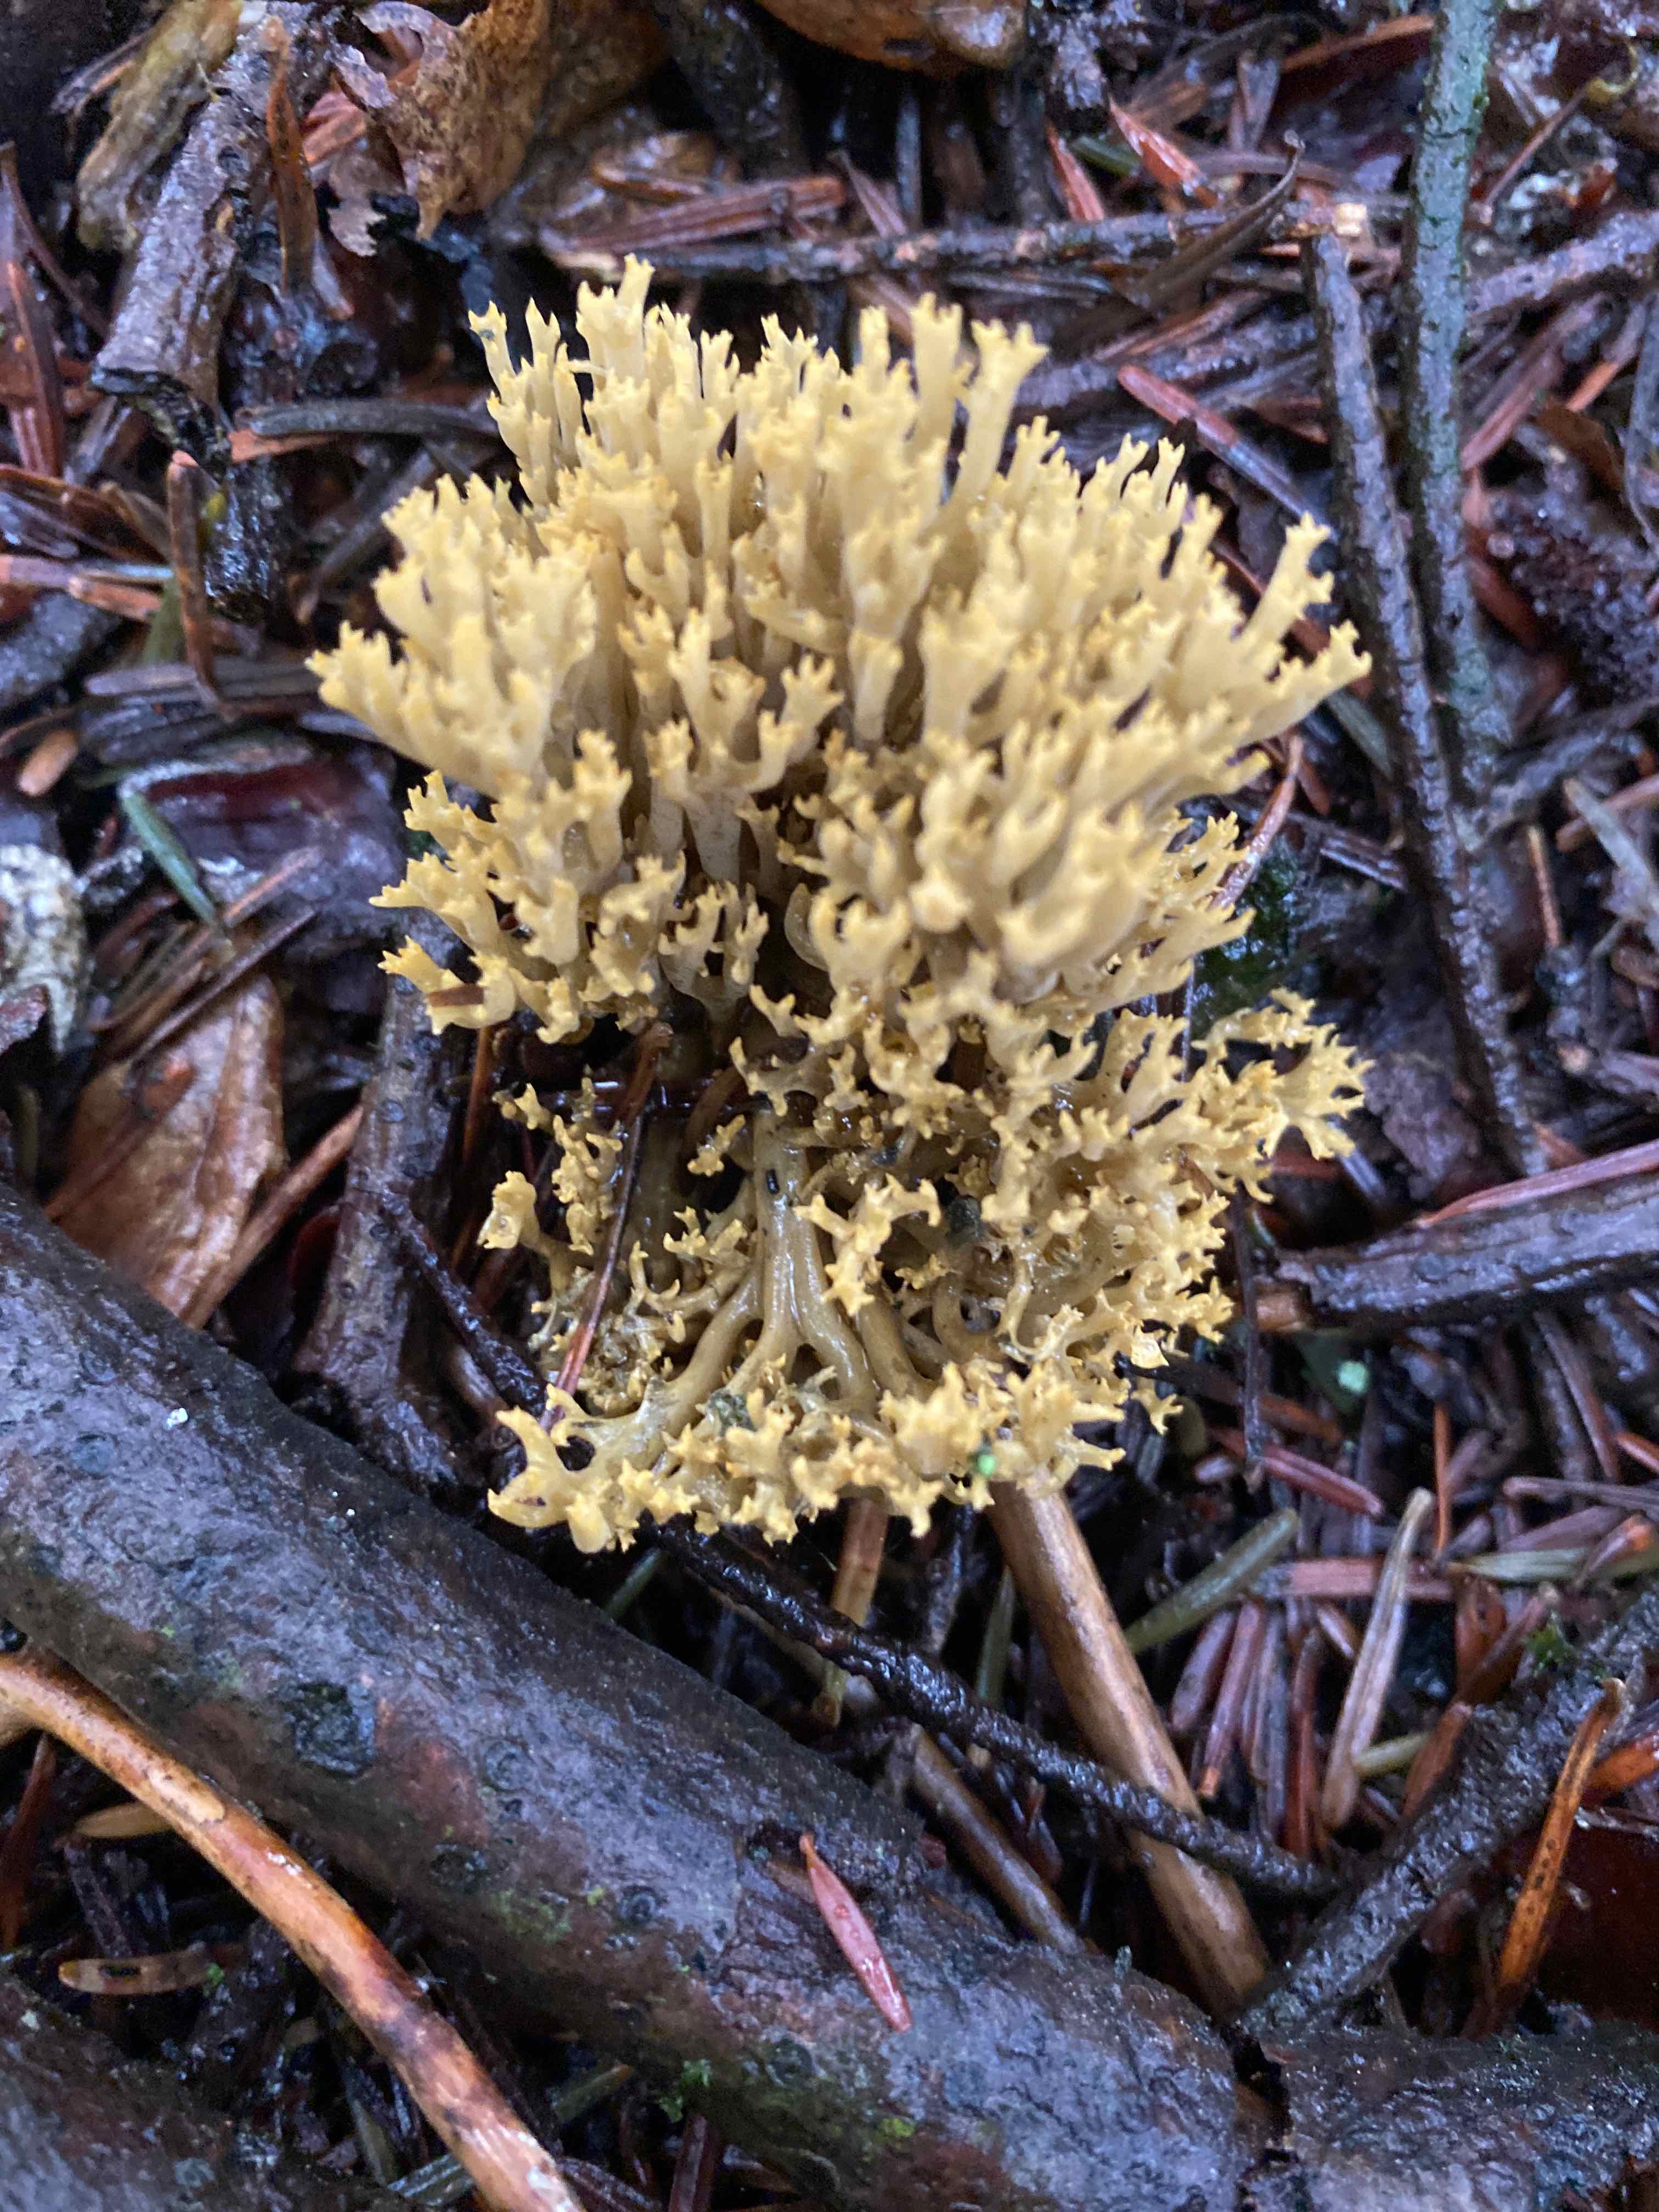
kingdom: Fungi
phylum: Basidiomycota
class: Agaricomycetes
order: Gomphales
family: Gomphaceae
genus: Phaeoclavulina
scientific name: Phaeoclavulina eumorpha
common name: gran-koralsvamp
